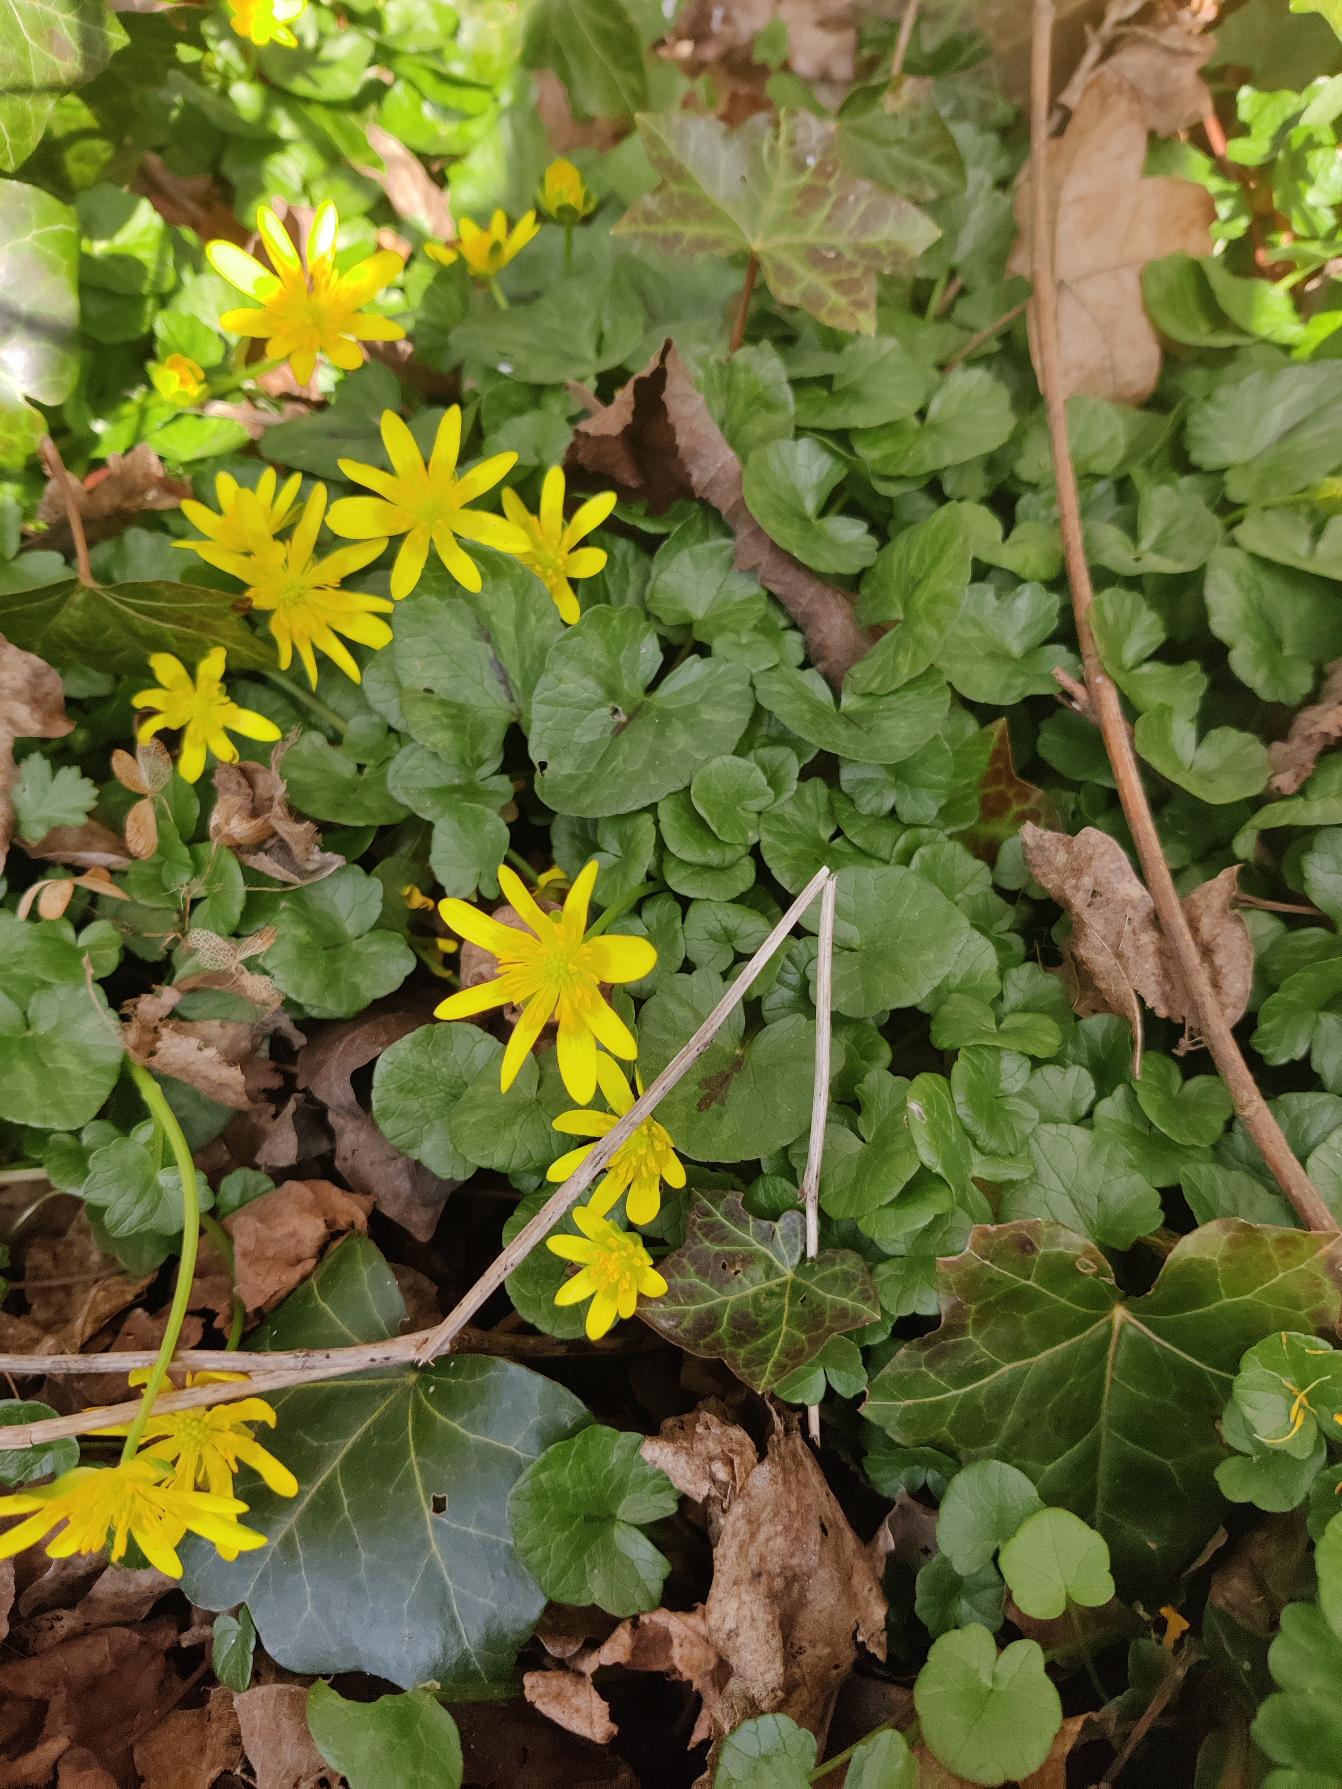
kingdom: Plantae
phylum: Tracheophyta
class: Magnoliopsida
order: Ranunculales
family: Ranunculaceae
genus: Ficaria
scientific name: Ficaria verna
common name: Vorterod
